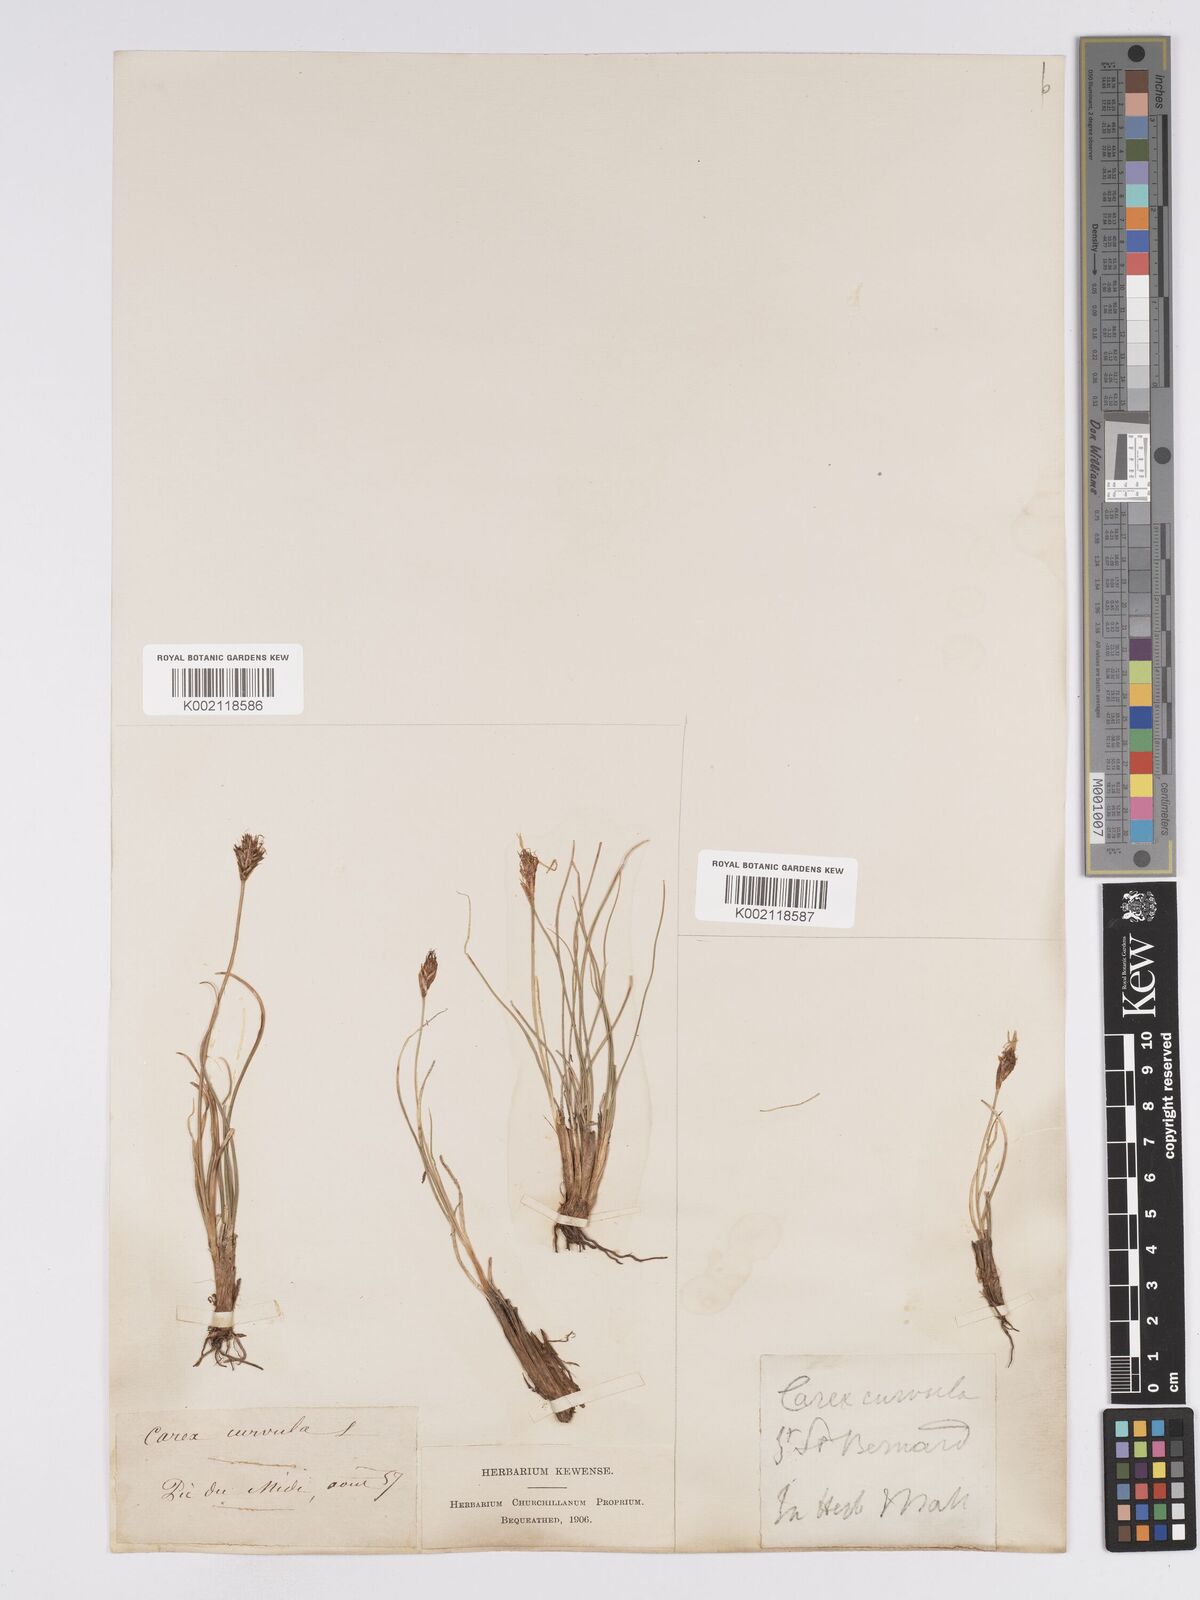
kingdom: Plantae
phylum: Tracheophyta
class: Liliopsida
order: Poales
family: Cyperaceae
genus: Carex
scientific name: Carex curvula
